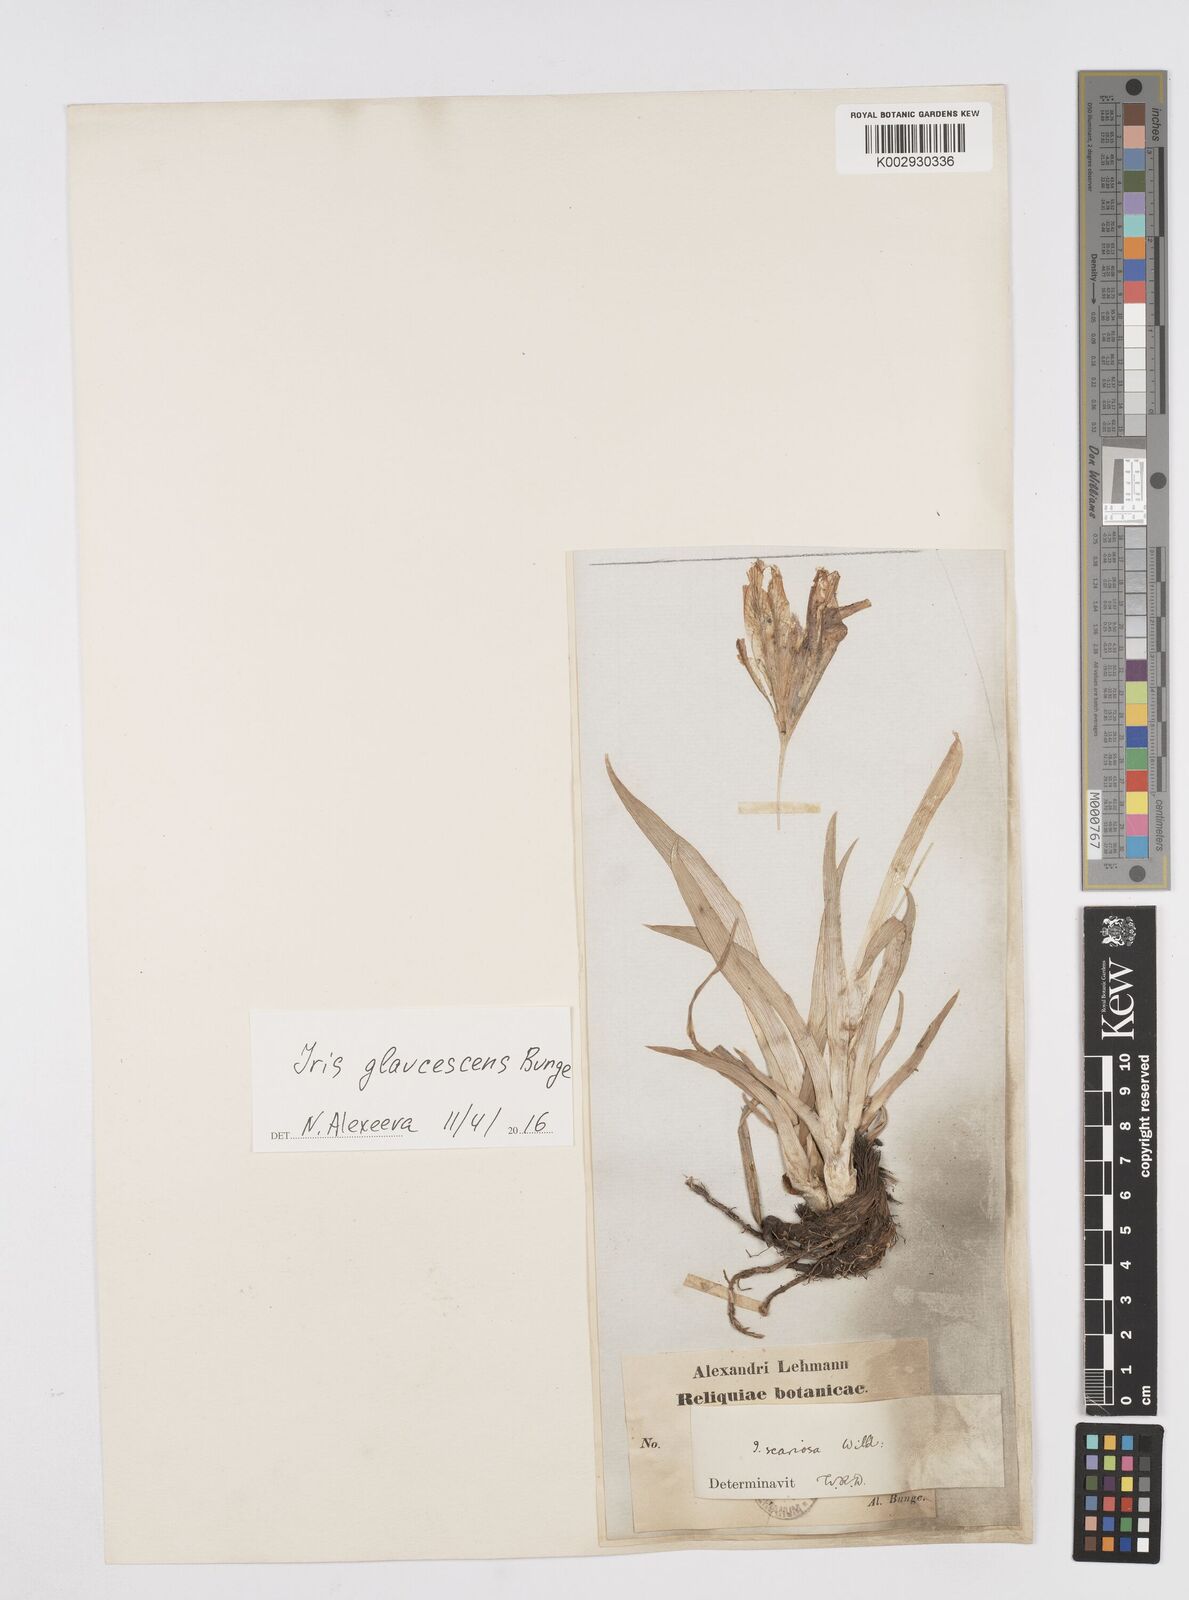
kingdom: Plantae
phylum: Tracheophyta
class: Liliopsida
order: Asparagales
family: Iridaceae
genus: Iris
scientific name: Iris scariosa
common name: Membrane-bract iris
